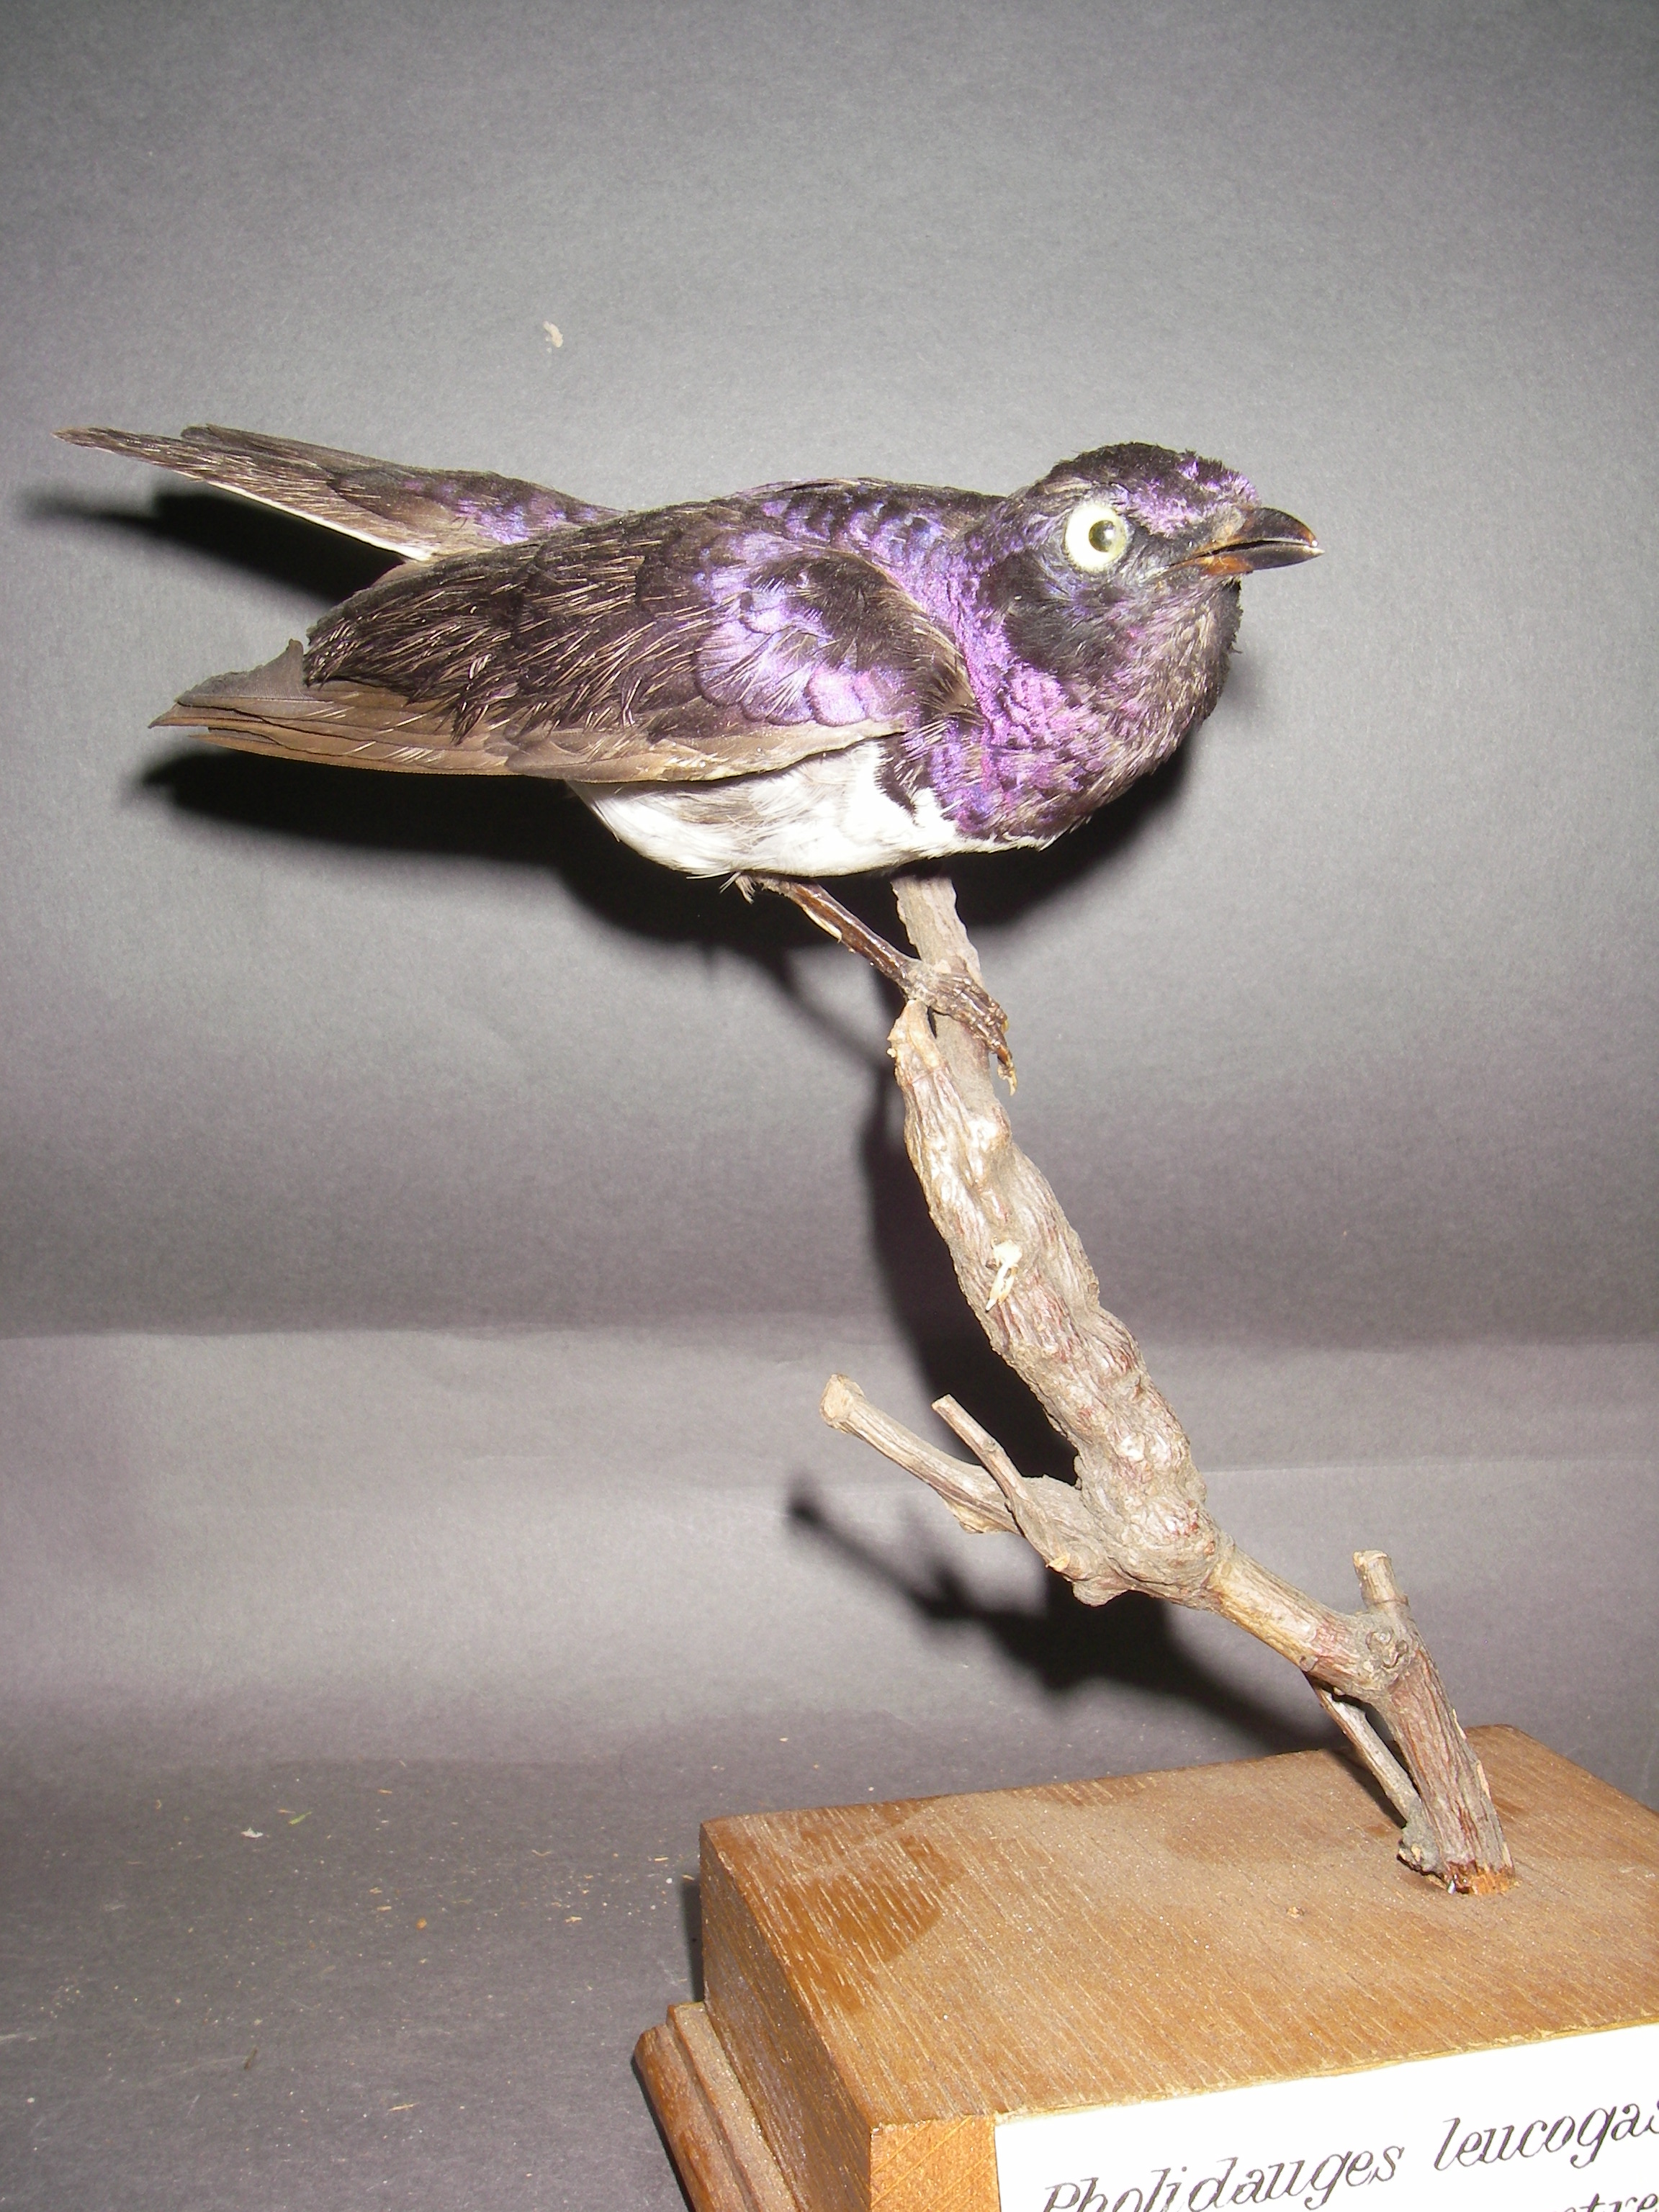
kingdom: Animalia
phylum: Chordata
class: Aves
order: Passeriformes
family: Sturnidae
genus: Cinnyricinclus
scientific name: Cinnyricinclus leucogaster
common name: Violet-backed starling
